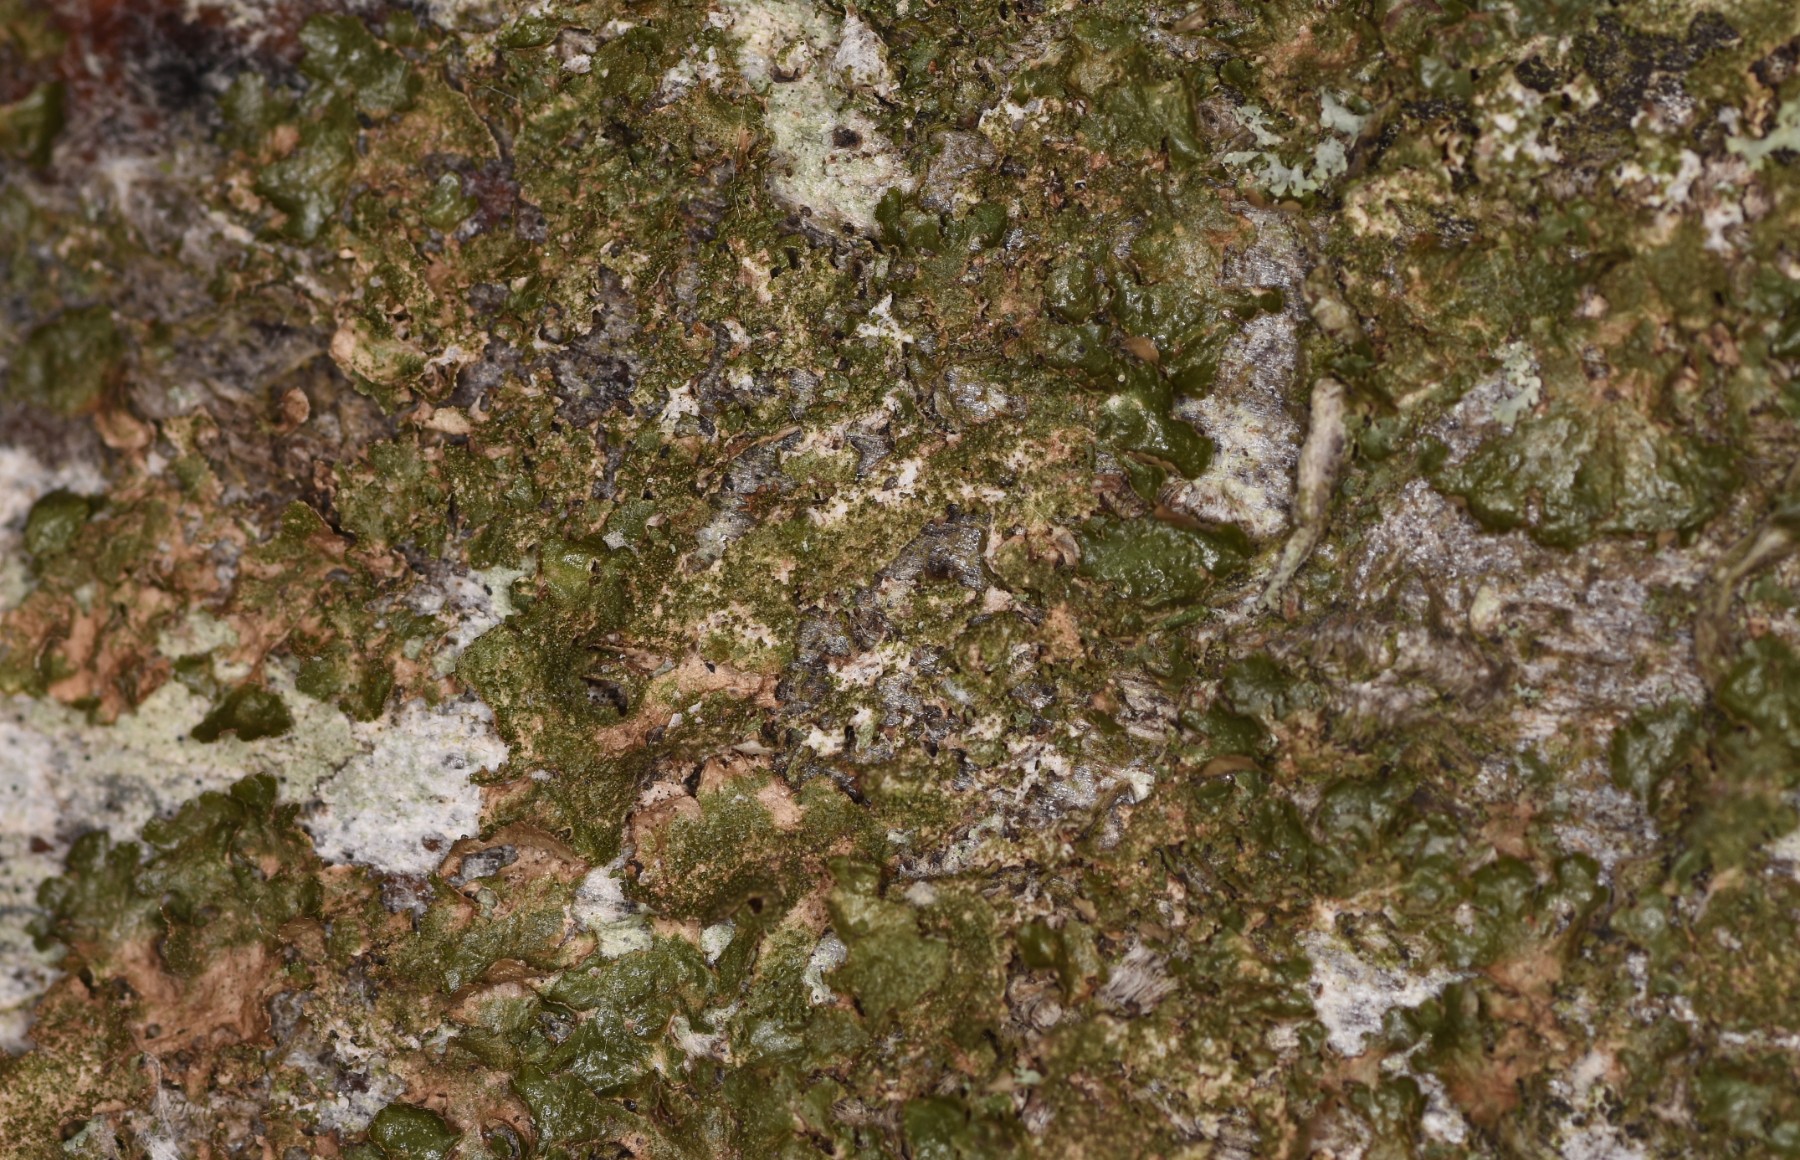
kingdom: Fungi
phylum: Ascomycota
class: Lecanoromycetes
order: Lecanorales
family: Parmeliaceae
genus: Melanelixia
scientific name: Melanelixia glabratula
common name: glinsende skållav
